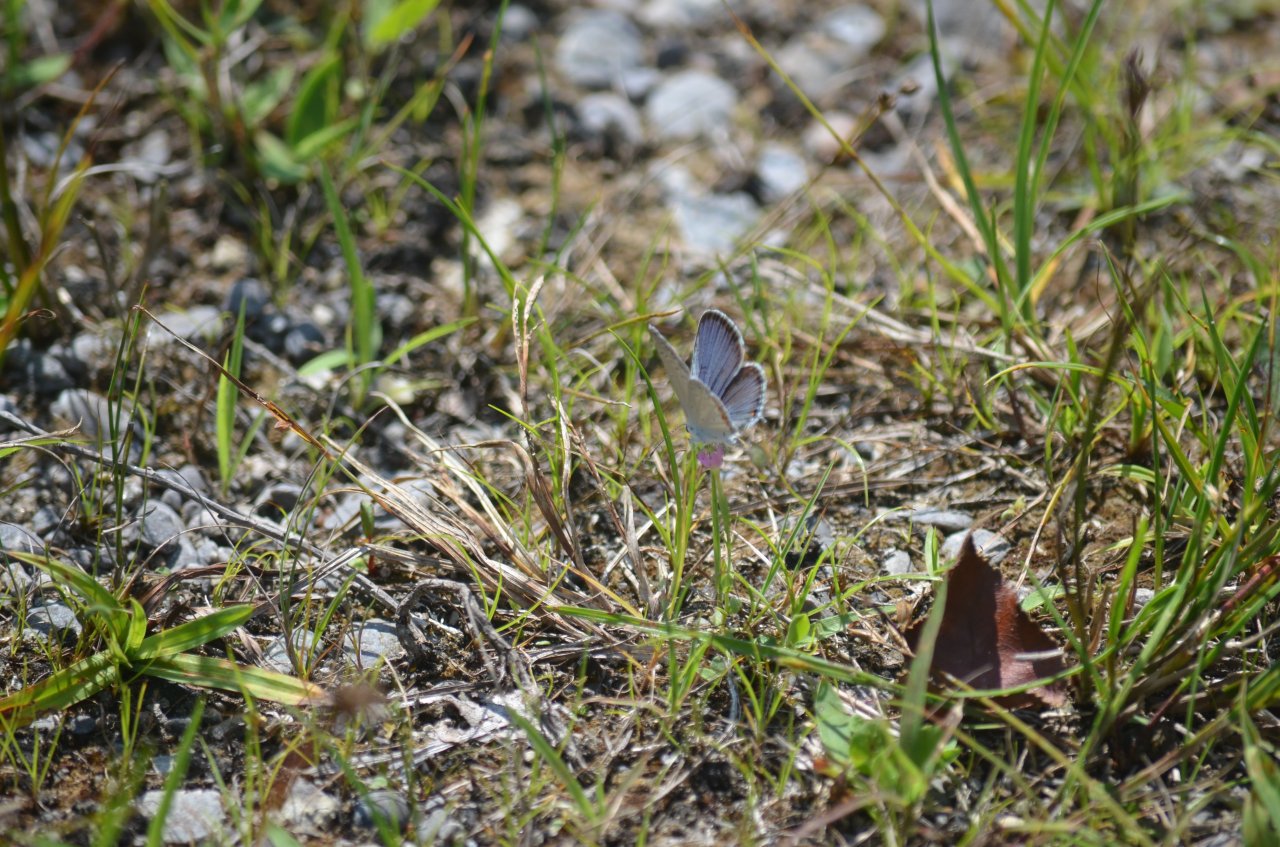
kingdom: Animalia
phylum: Arthropoda
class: Insecta
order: Lepidoptera
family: Lycaenidae
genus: Elkalyce
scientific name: Elkalyce comyntas
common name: Eastern Tailed-Blue
